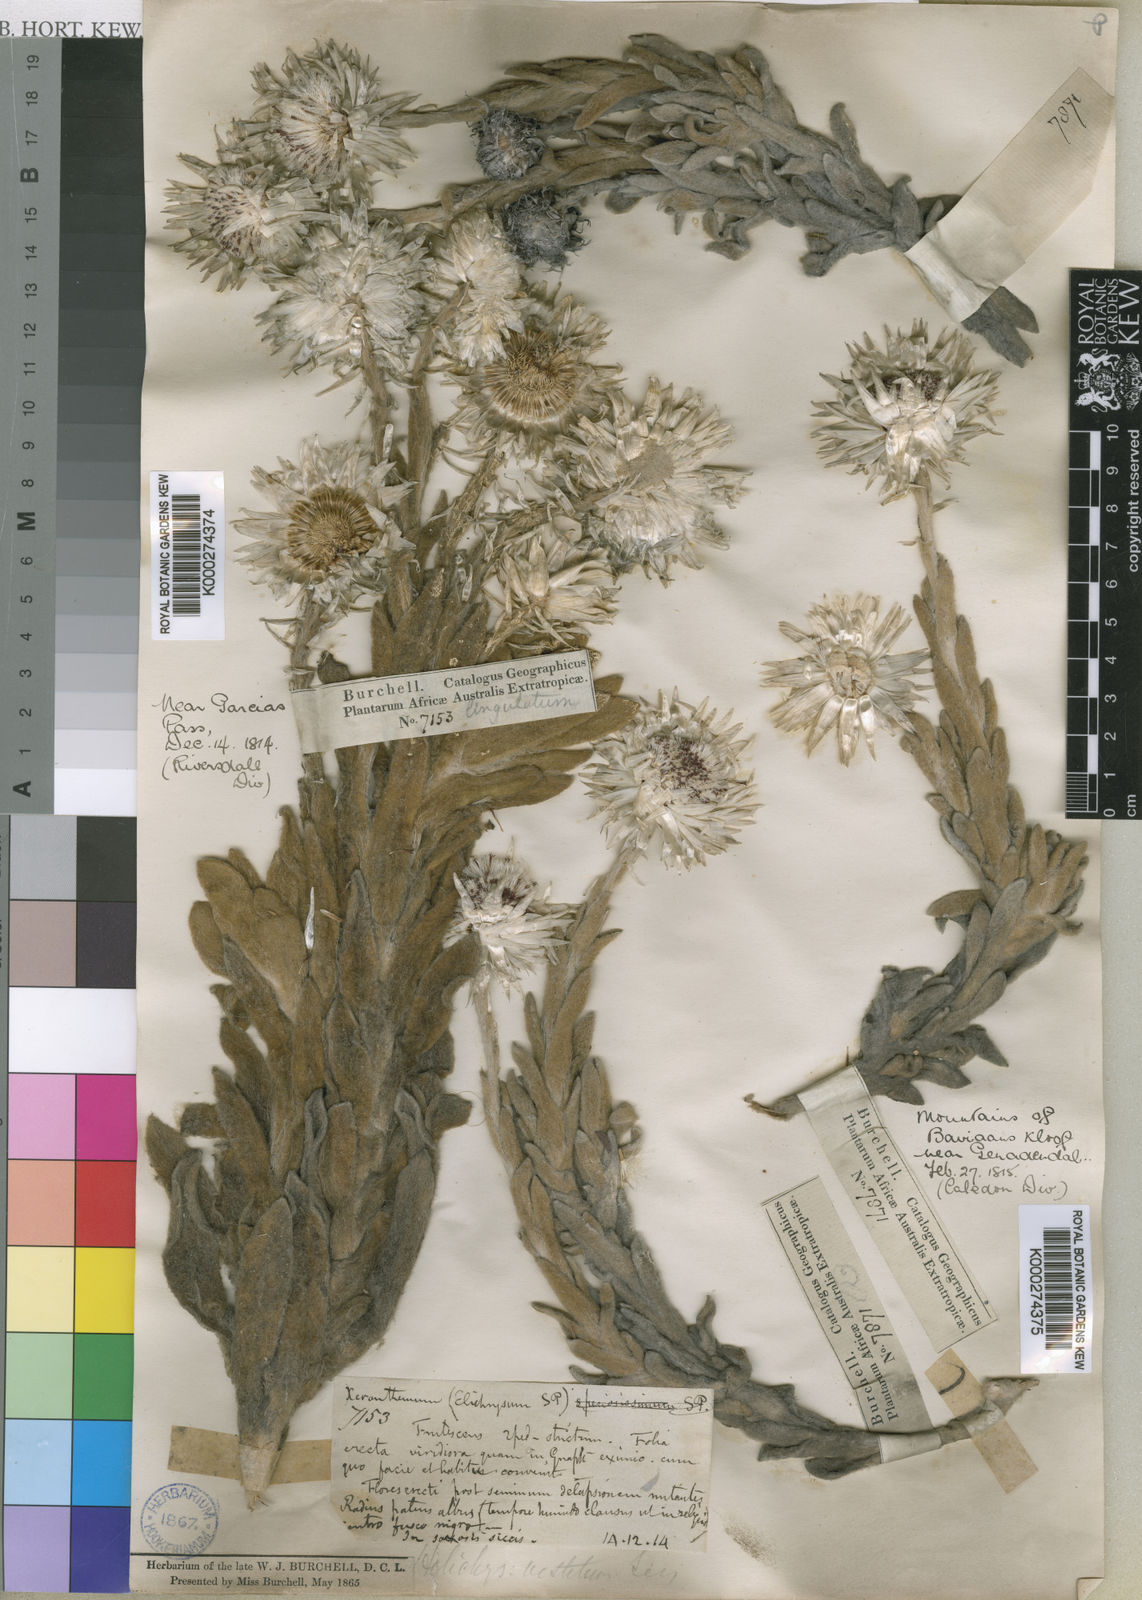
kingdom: Plantae
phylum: Tracheophyta
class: Magnoliopsida
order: Asterales
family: Asteraceae
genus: Syncarpha
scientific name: Syncarpha vestita
